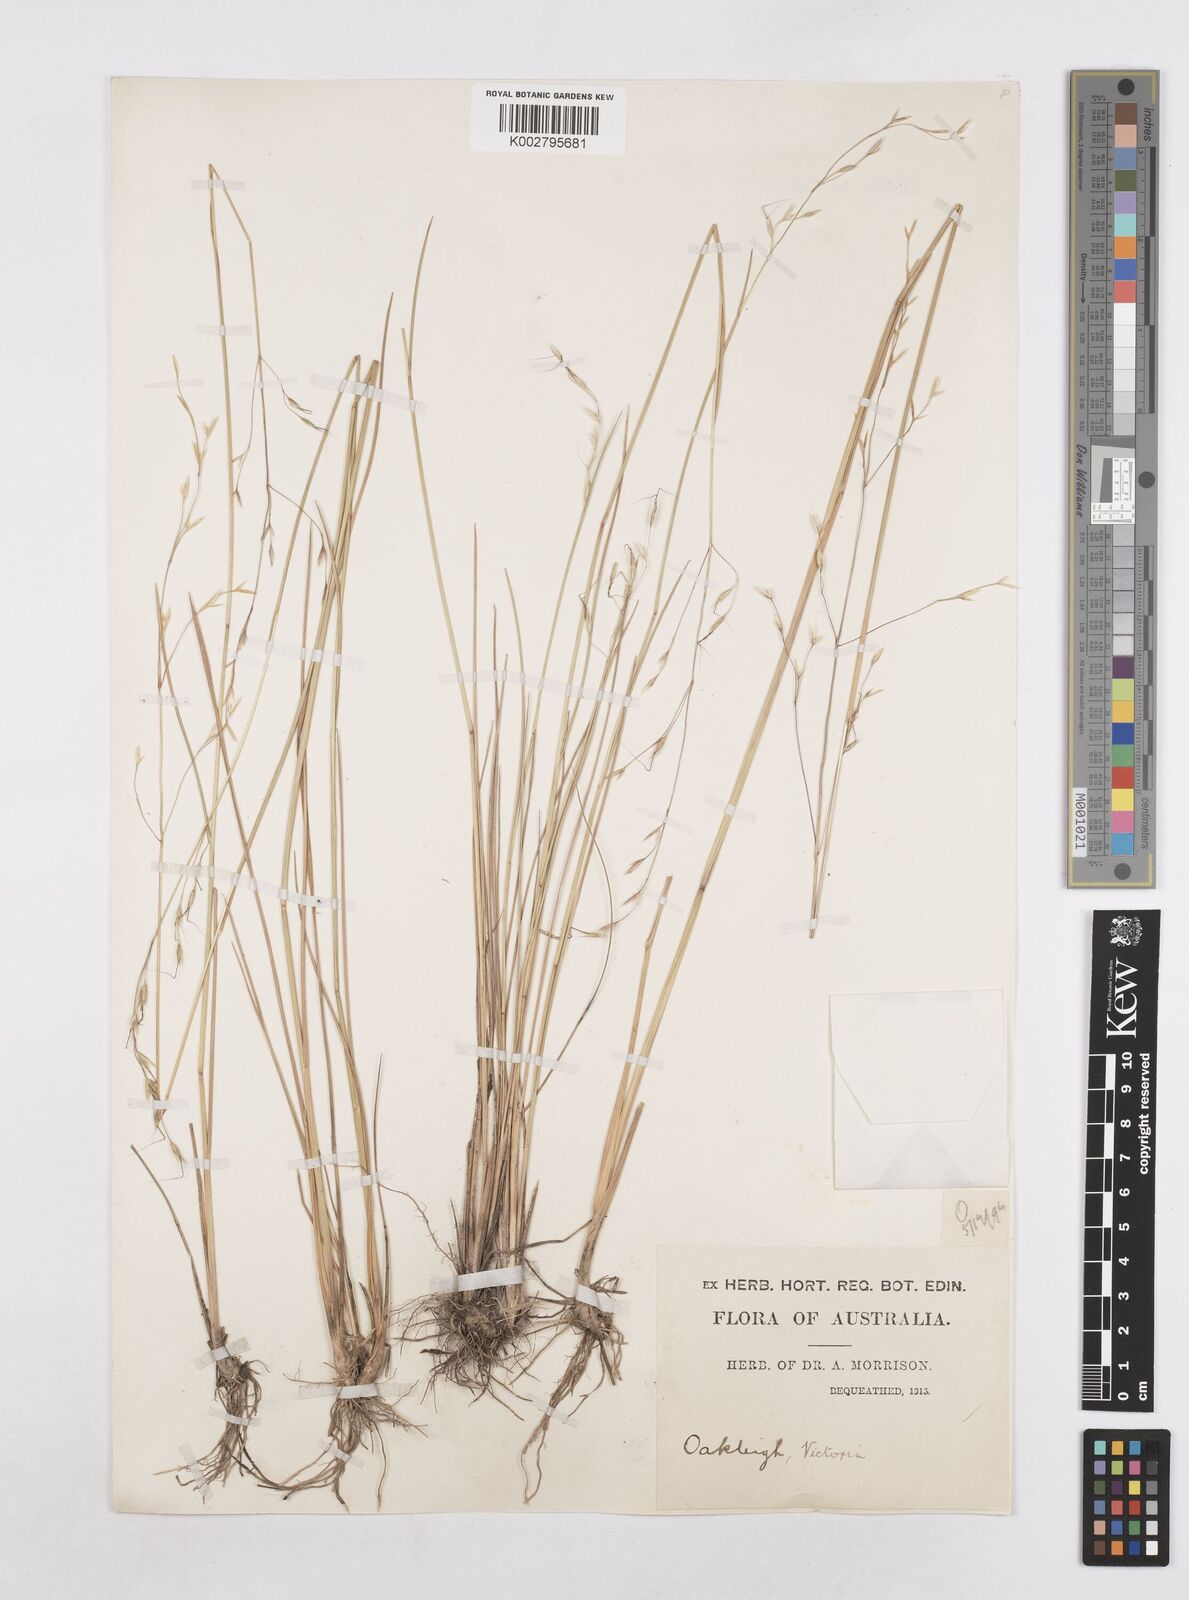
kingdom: Plantae
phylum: Tracheophyta
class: Liliopsida
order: Poales
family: Poaceae
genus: Amphibromus
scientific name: Amphibromus neesii
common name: Australian wallaby grass
